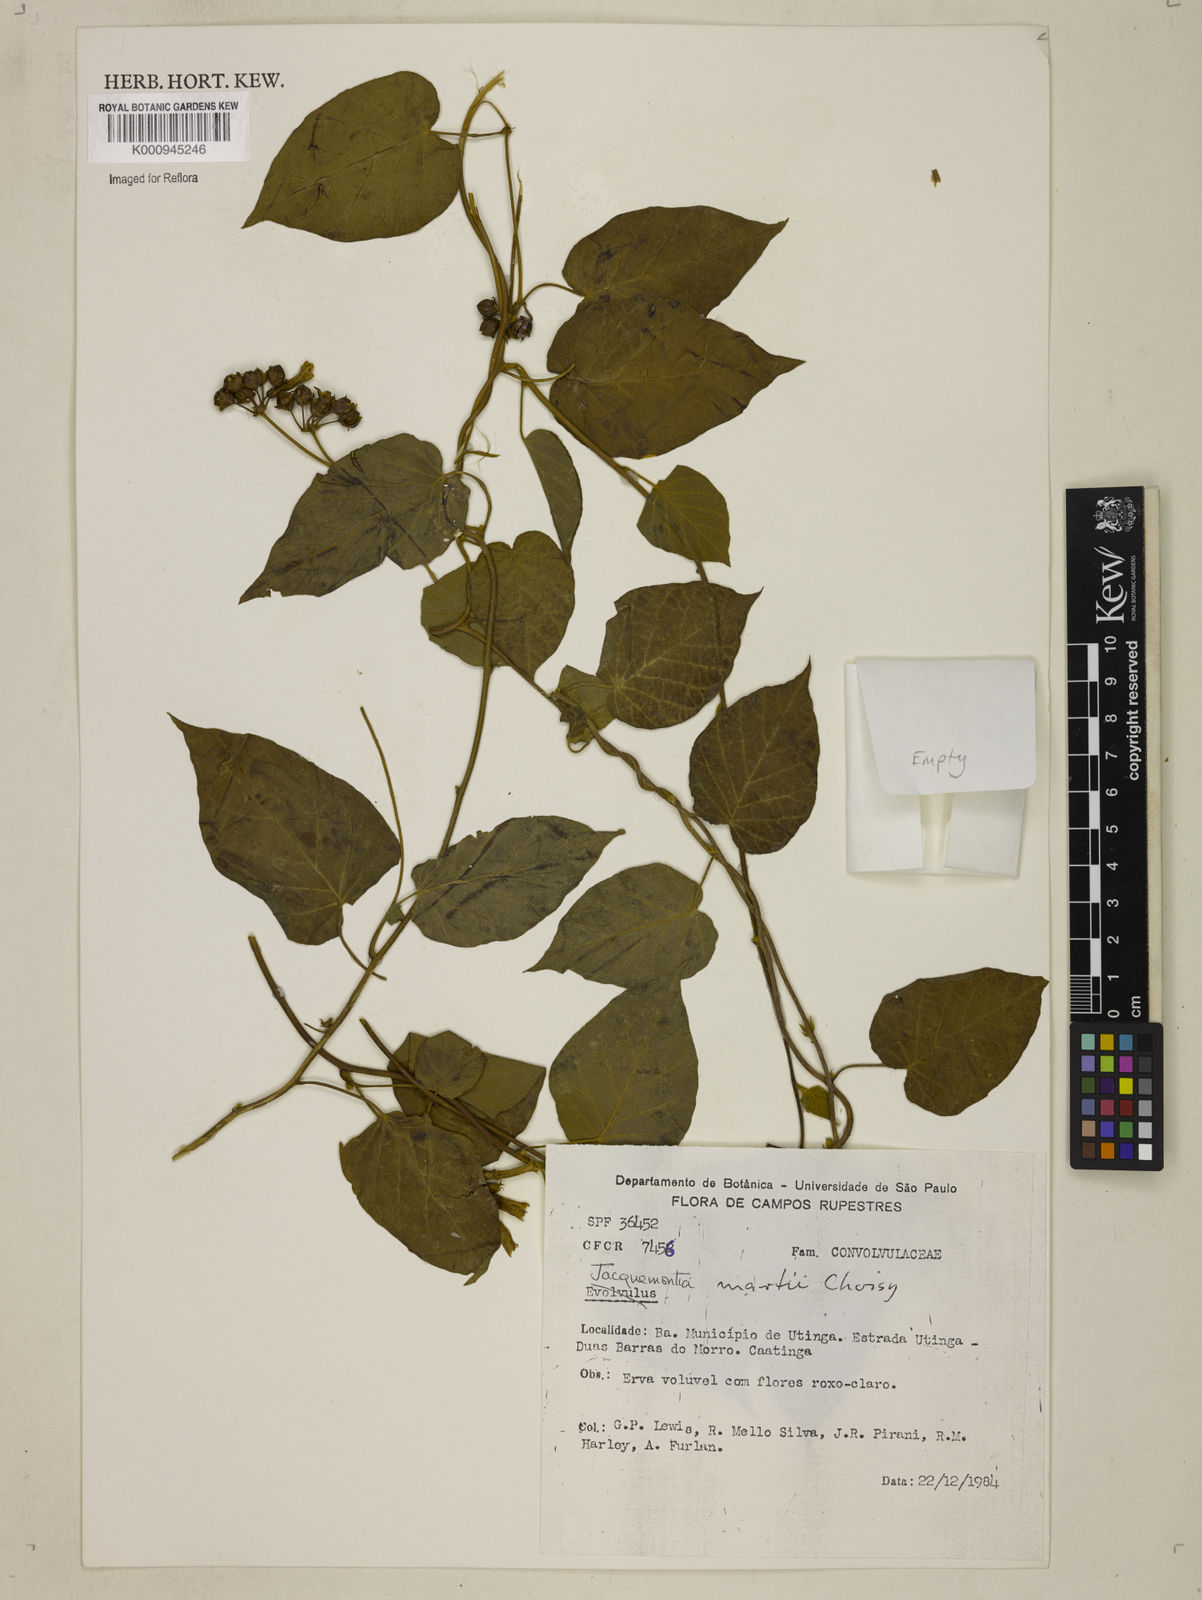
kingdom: Plantae
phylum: Tracheophyta
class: Magnoliopsida
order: Solanales
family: Convolvulaceae
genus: Jacquemontia
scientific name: Jacquemontia martii
